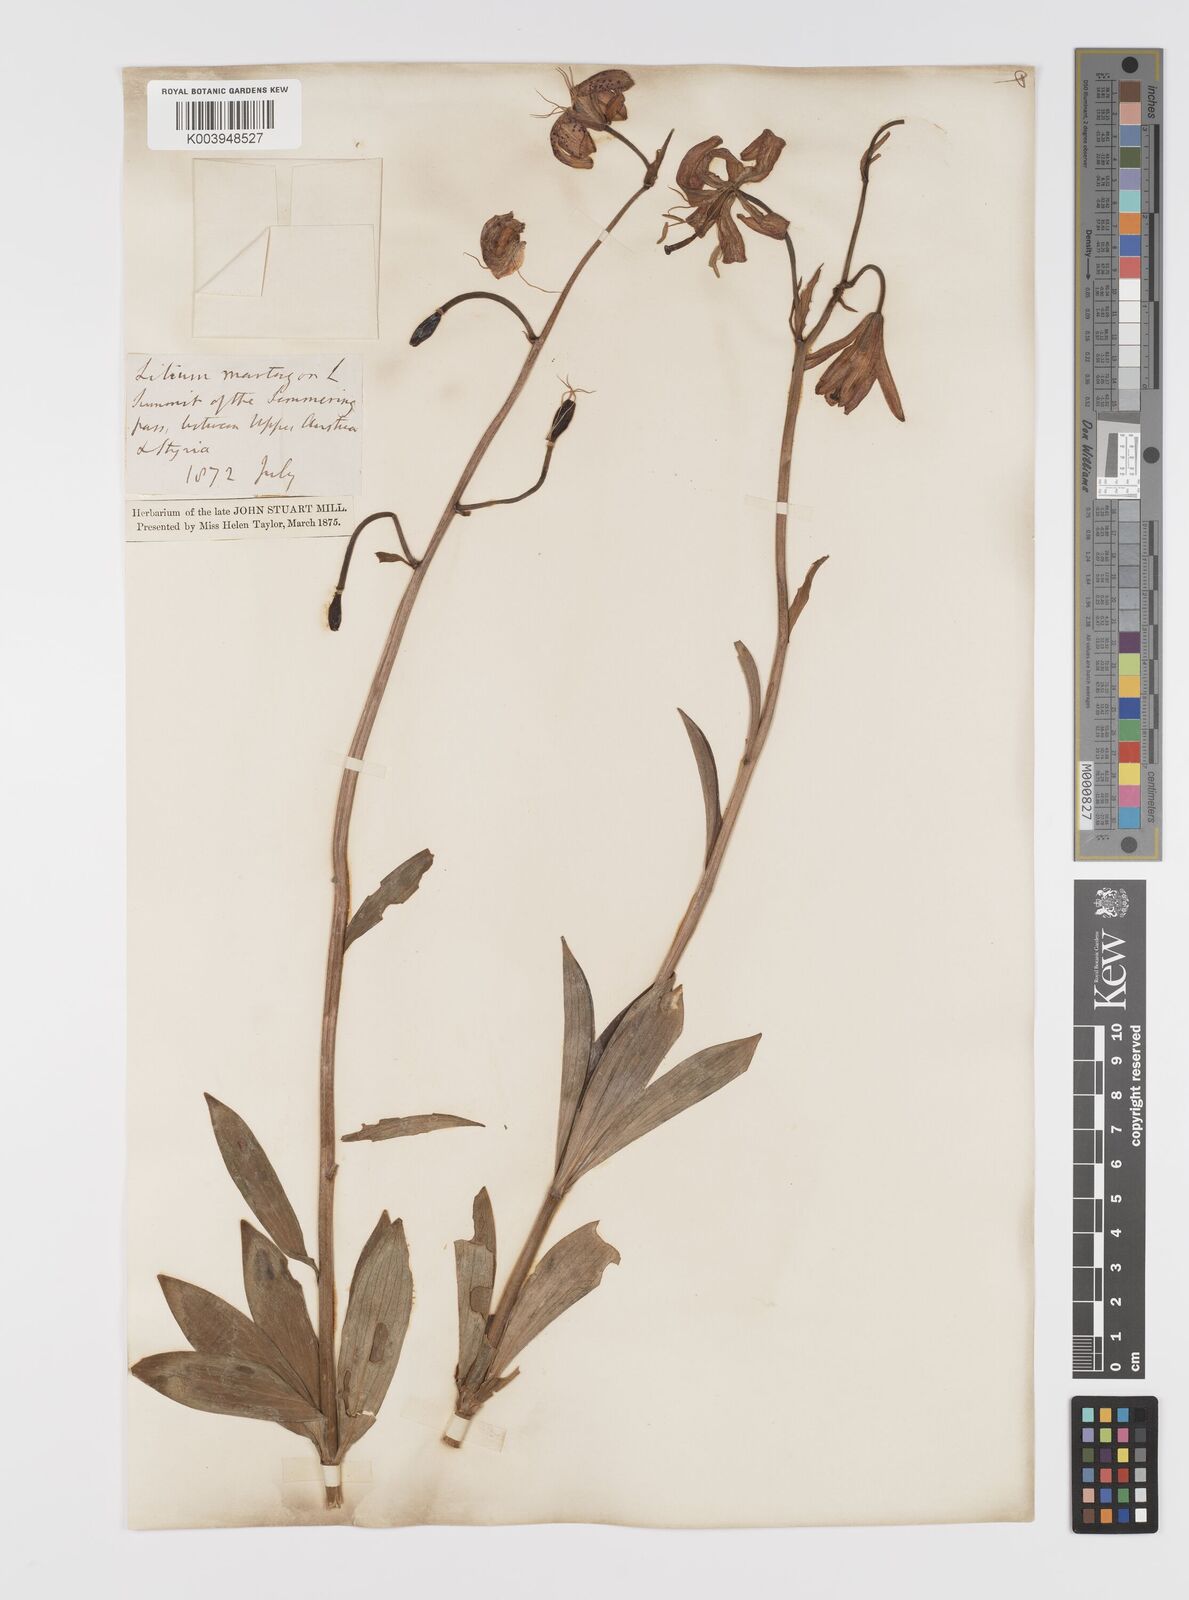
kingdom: Plantae
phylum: Tracheophyta
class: Liliopsida
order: Liliales
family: Liliaceae
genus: Lilium
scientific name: Lilium martagon
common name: Martagon lily
